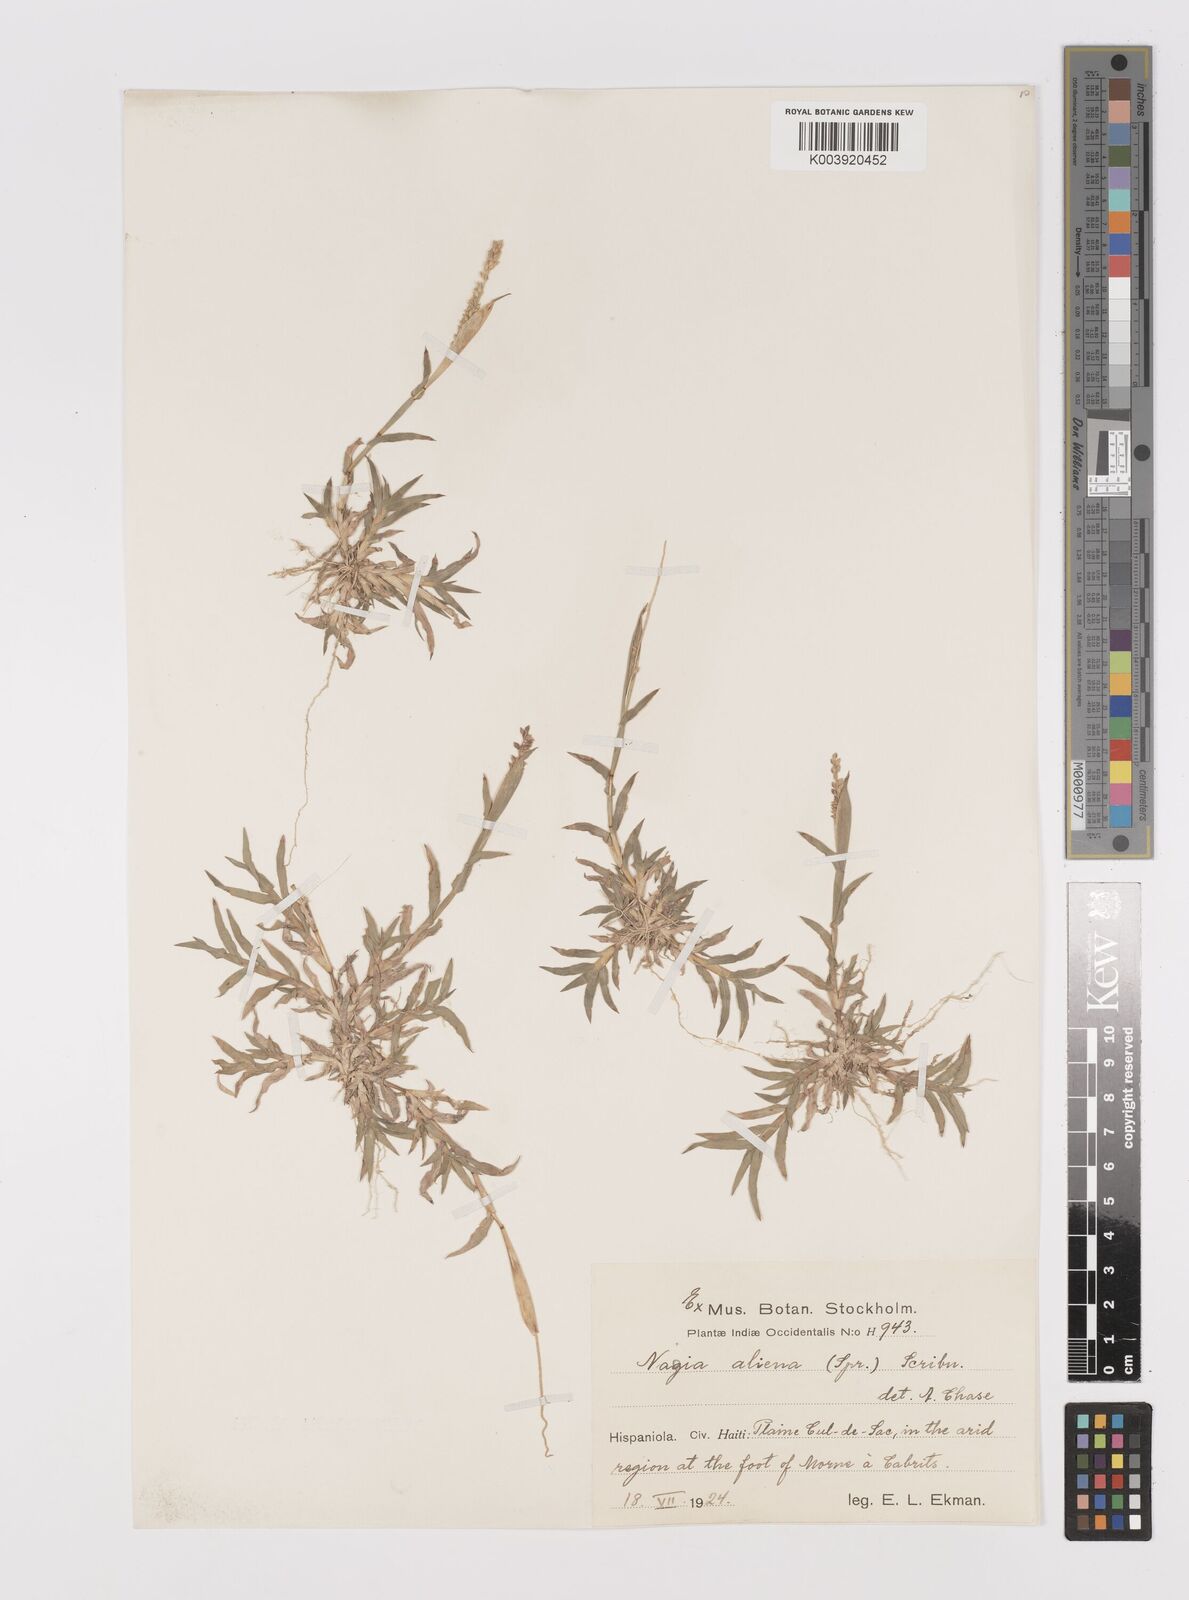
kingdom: Plantae
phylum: Tracheophyta
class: Liliopsida
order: Poales
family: Poaceae
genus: Tragus
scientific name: Tragus berteronianus
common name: African bur-grass
